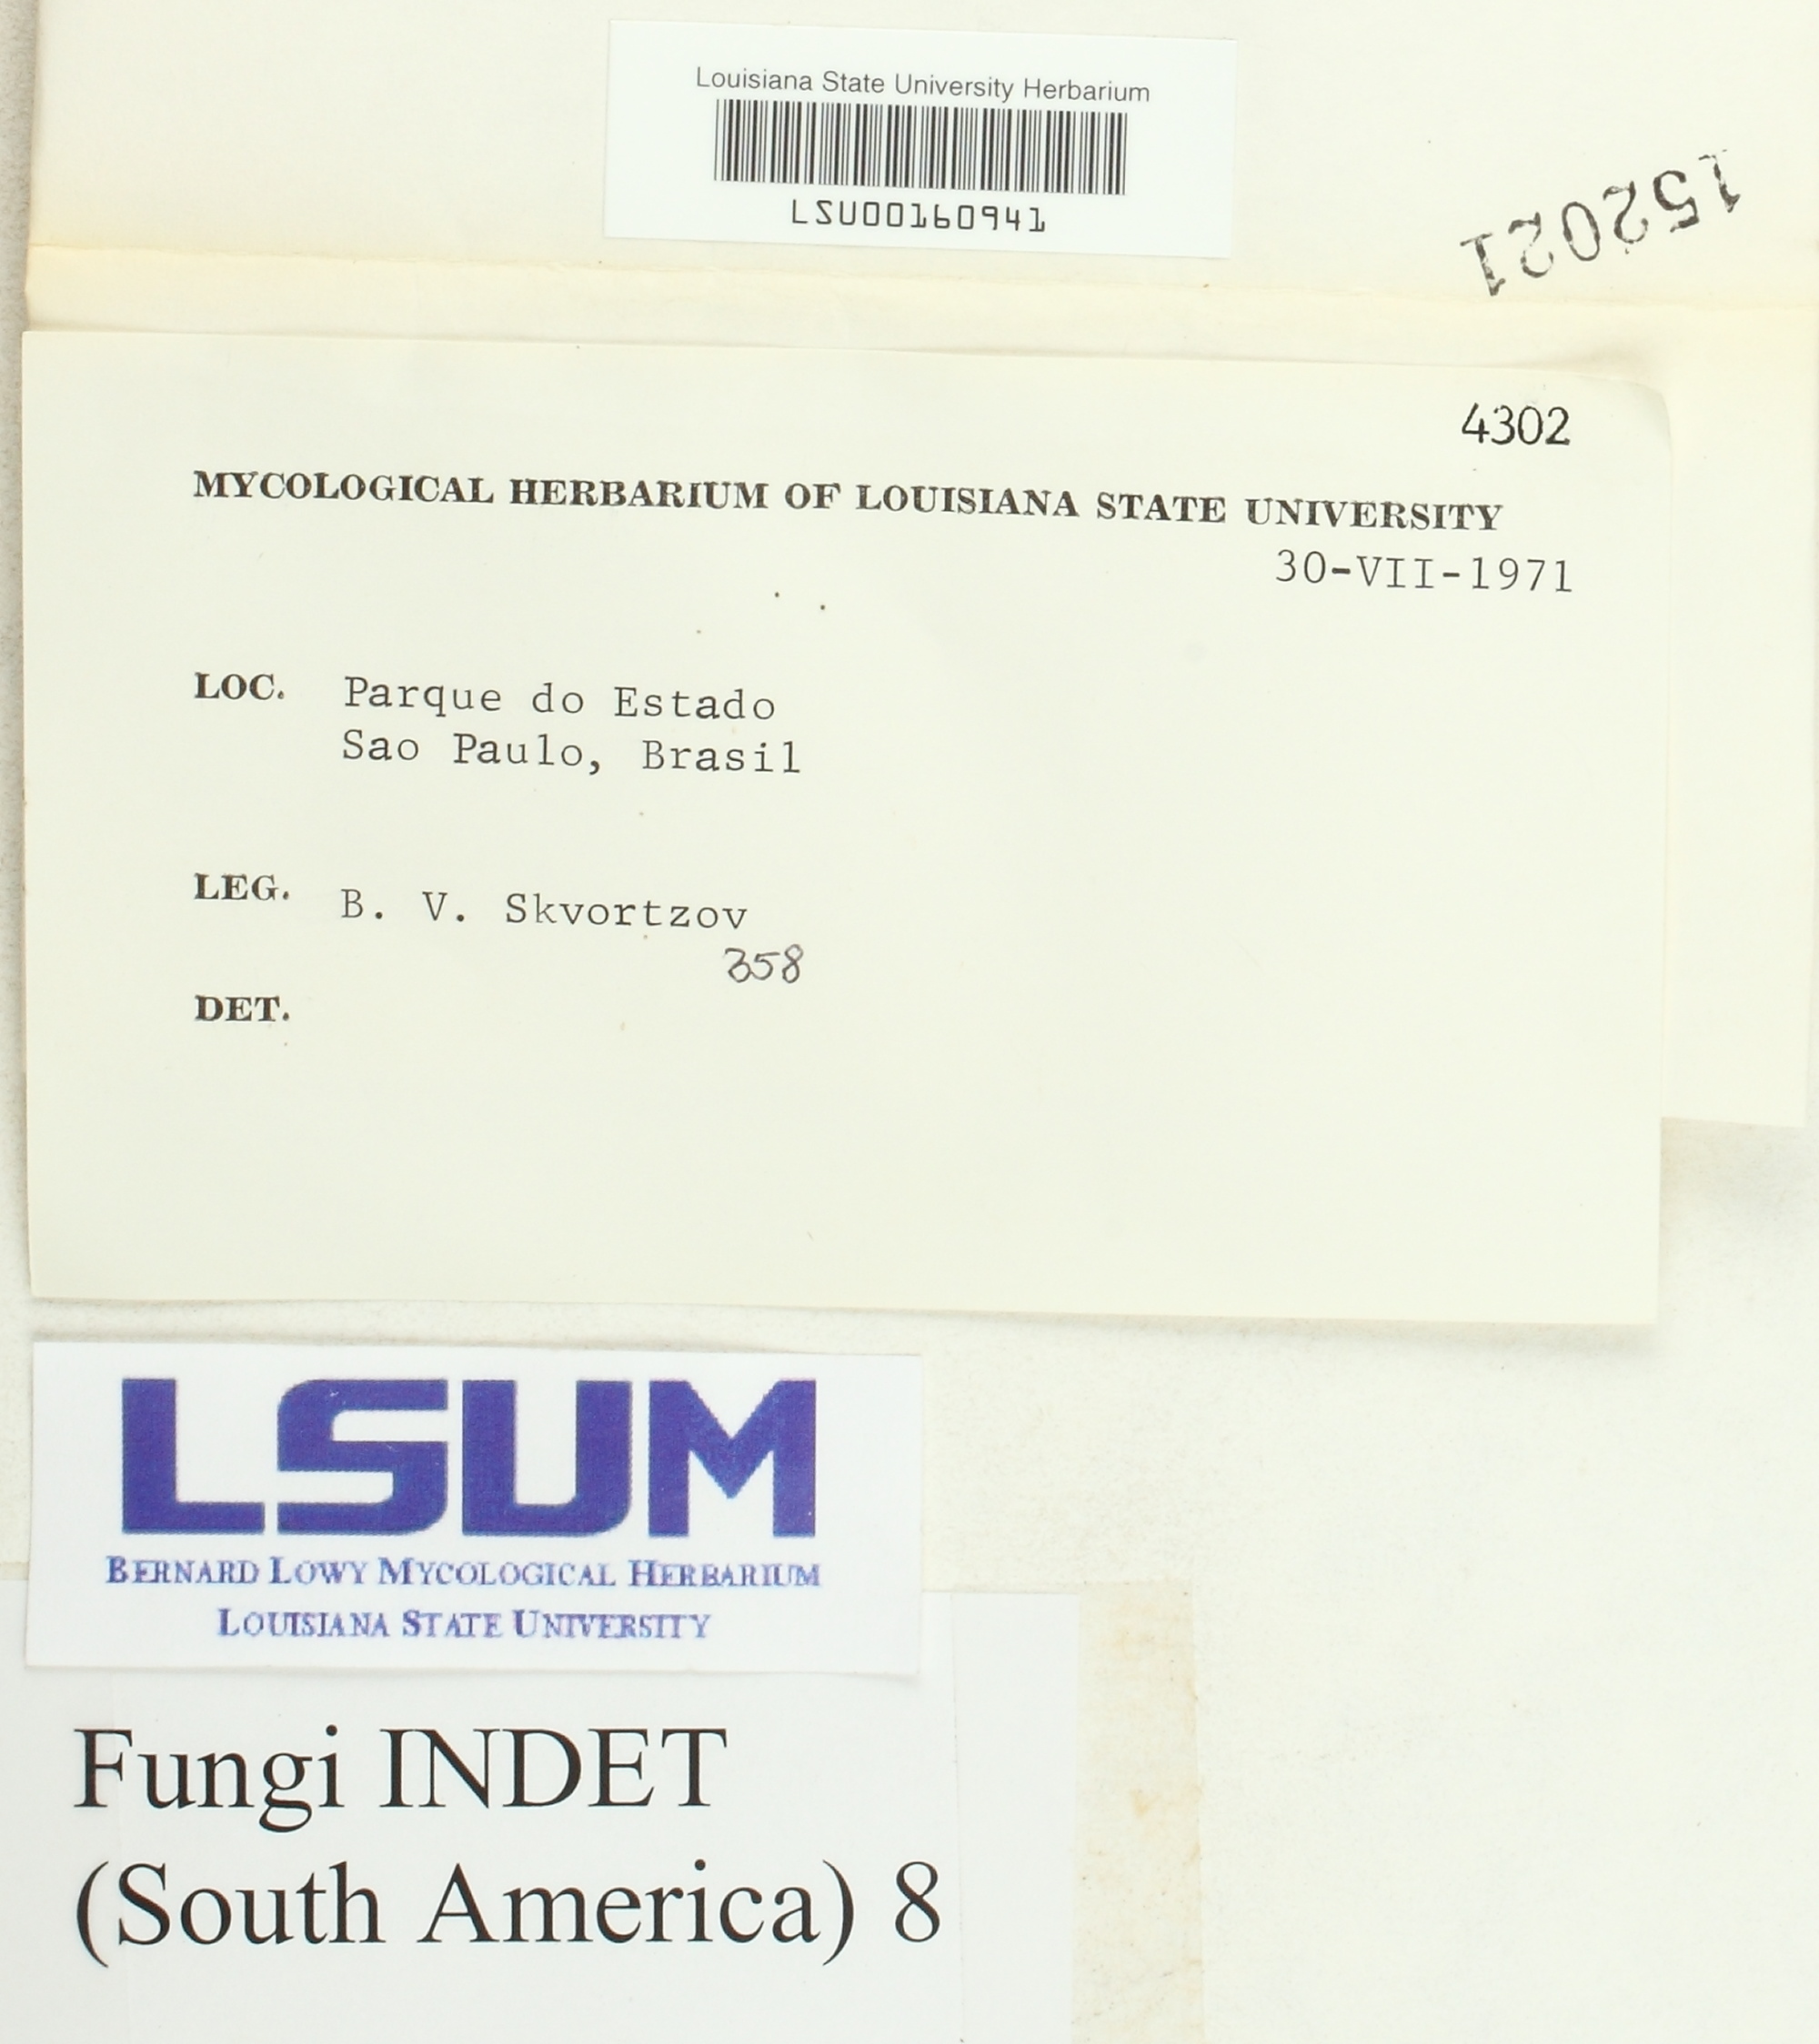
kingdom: Fungi
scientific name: Fungi
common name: Fungi
